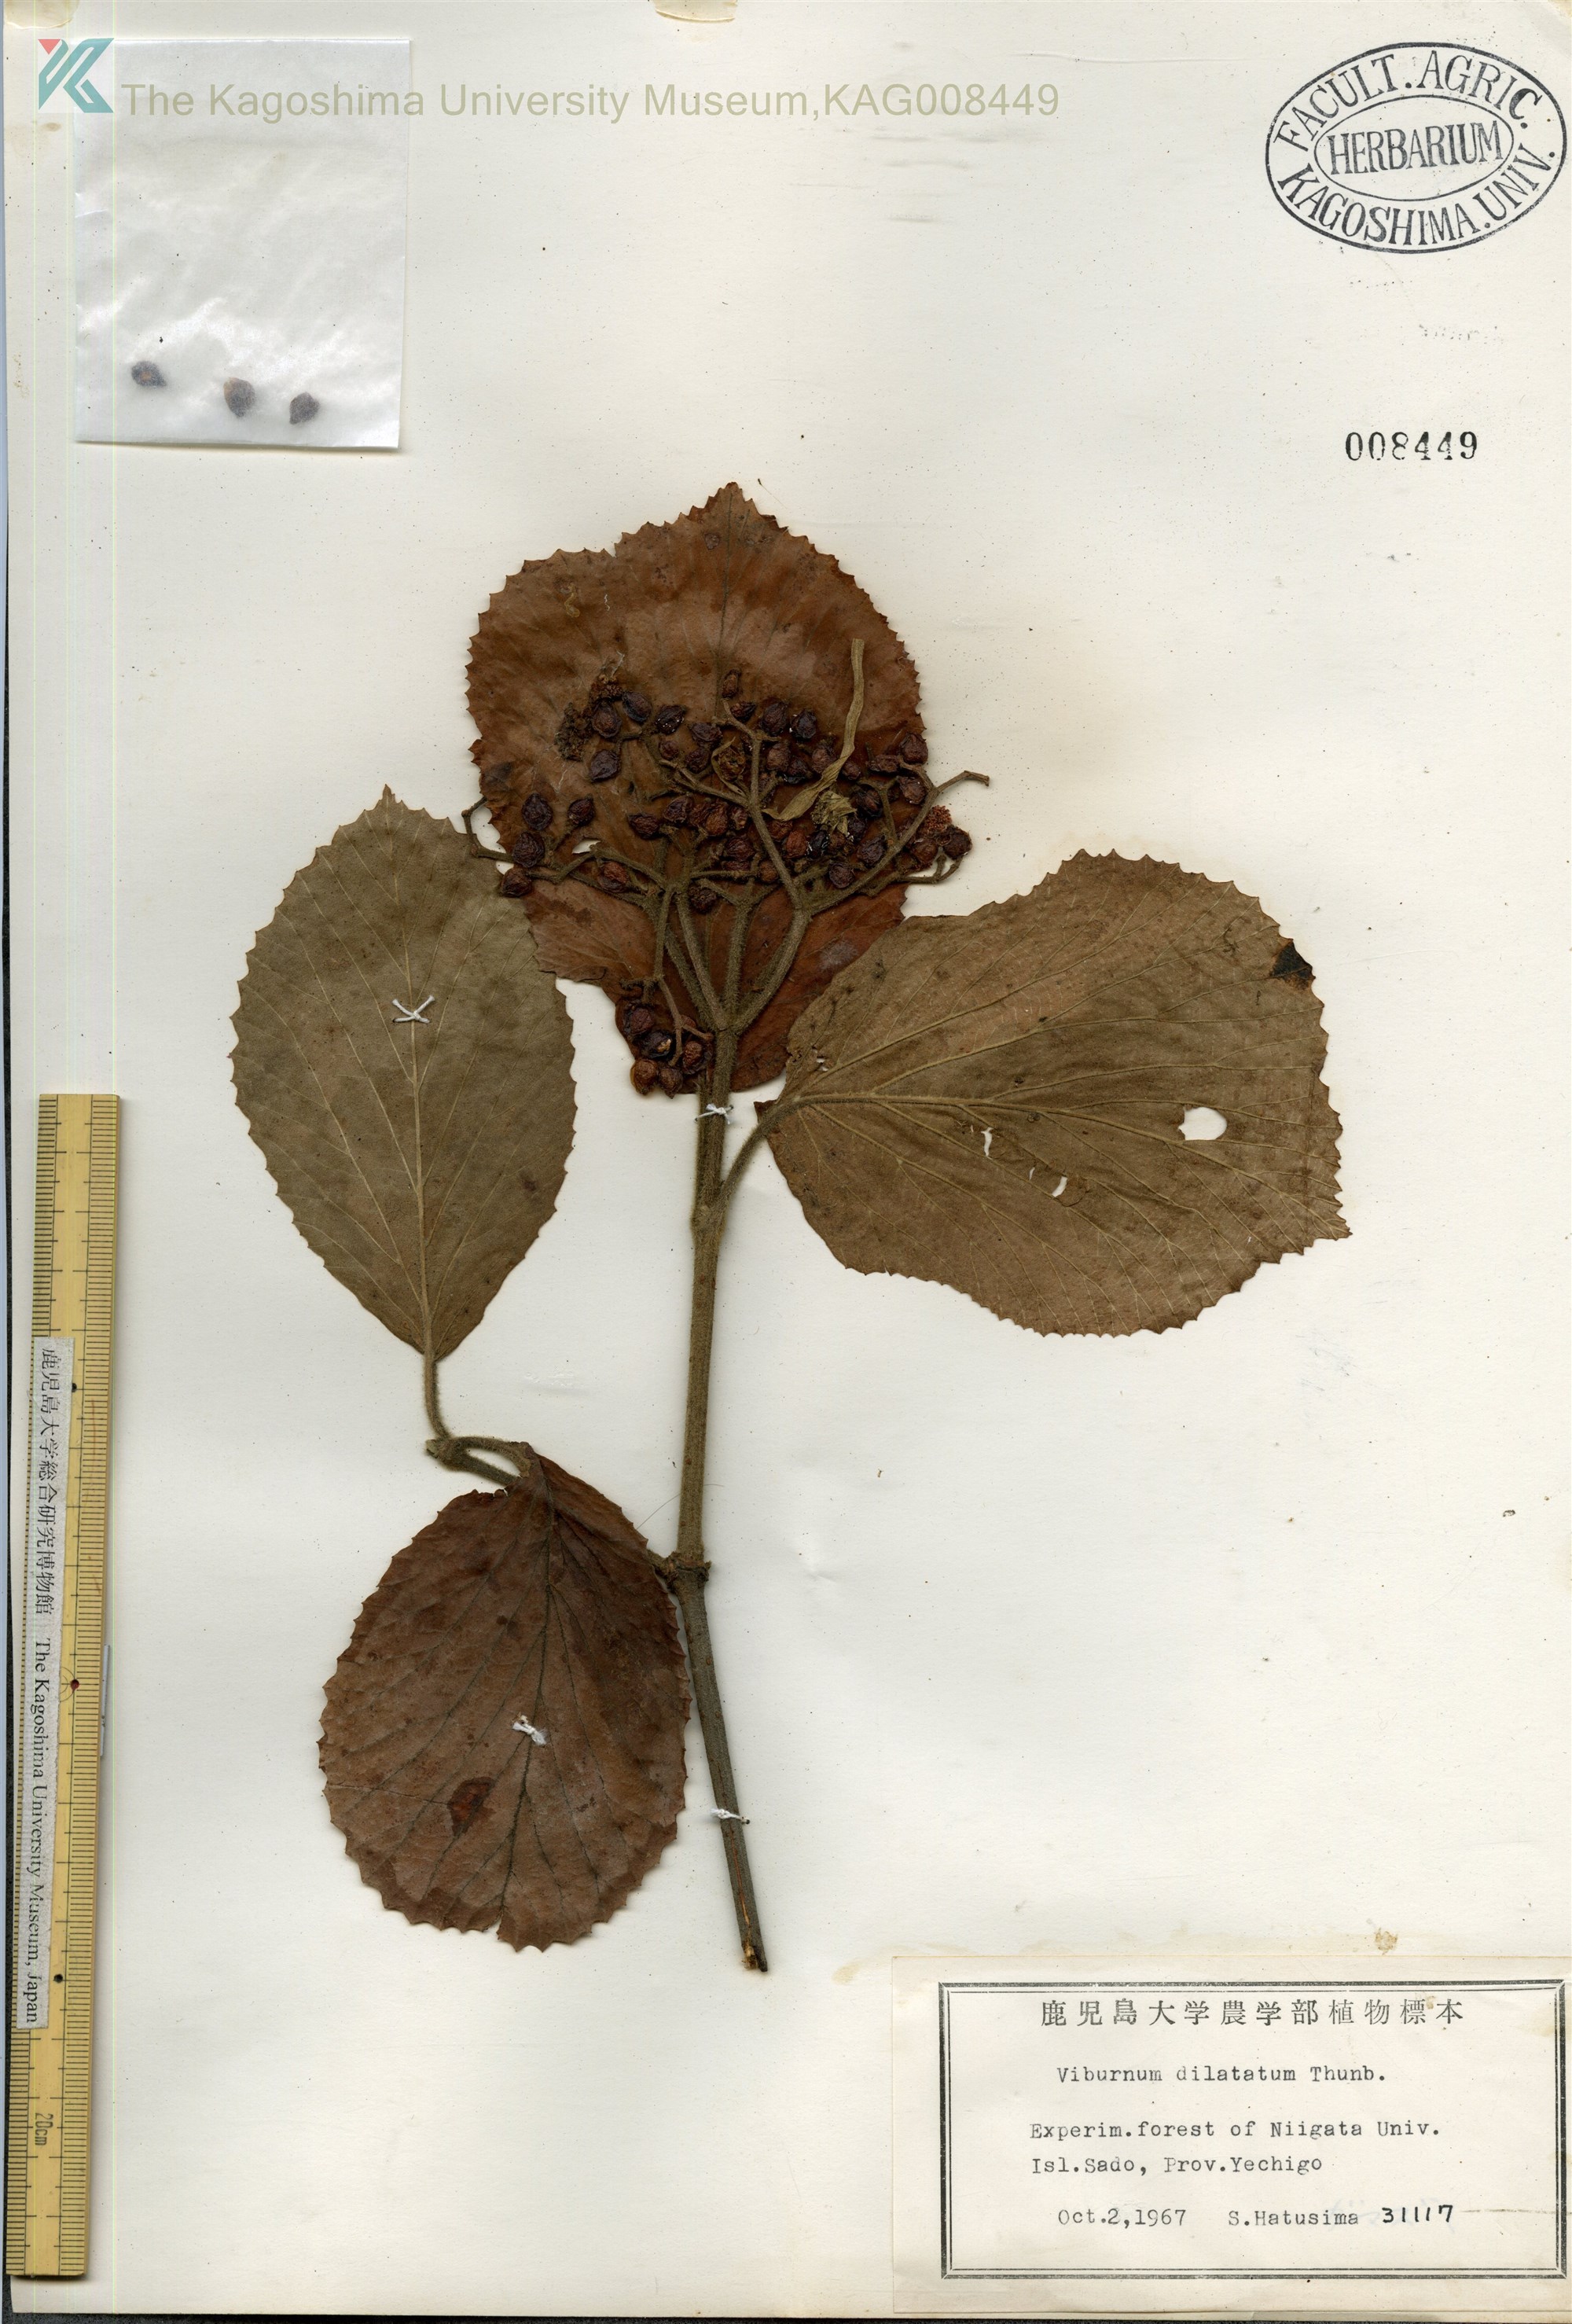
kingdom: Plantae
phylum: Tracheophyta
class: Magnoliopsida
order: Dipsacales
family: Viburnaceae
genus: Viburnum
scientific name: Viburnum dilatatum
